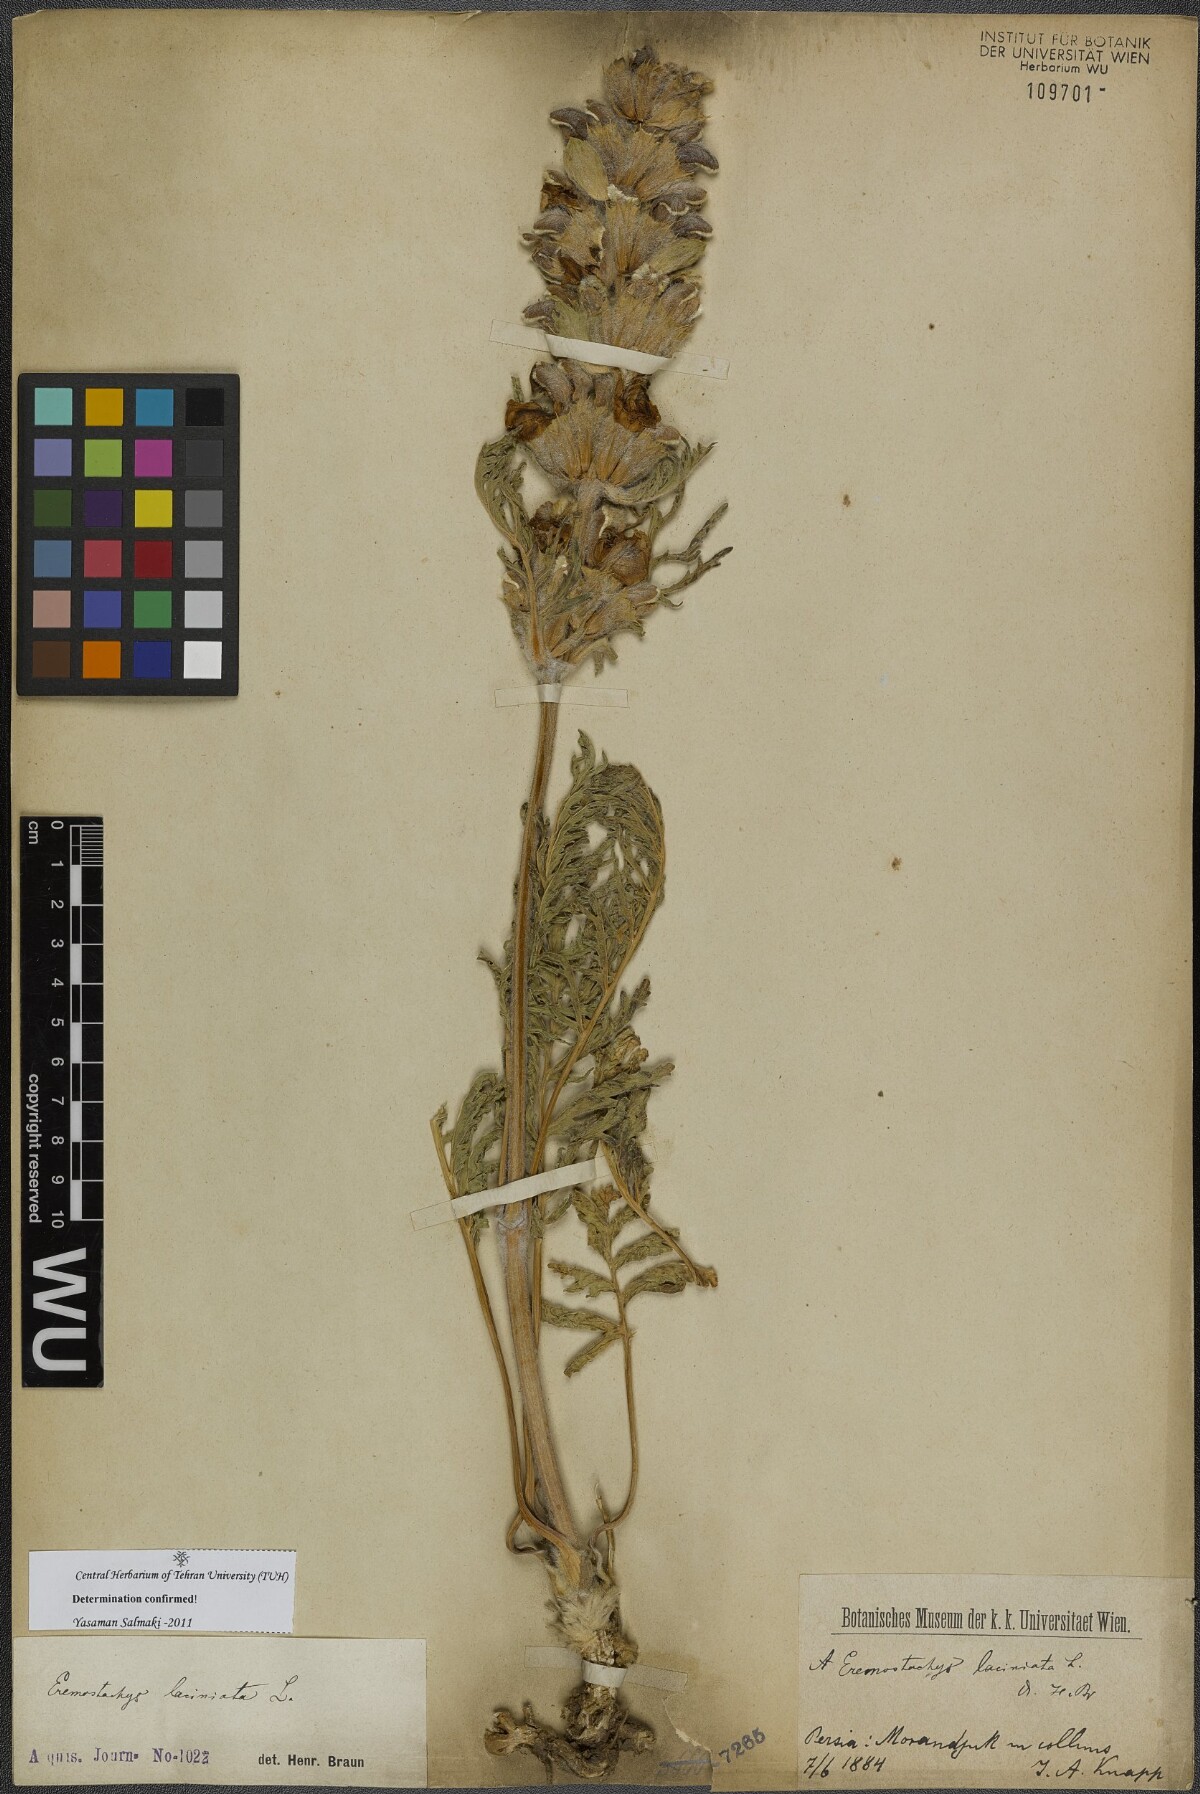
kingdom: Plantae
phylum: Tracheophyta
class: Magnoliopsida
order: Lamiales
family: Lamiaceae
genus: Phlomoides
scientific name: Phlomoides laciniata
